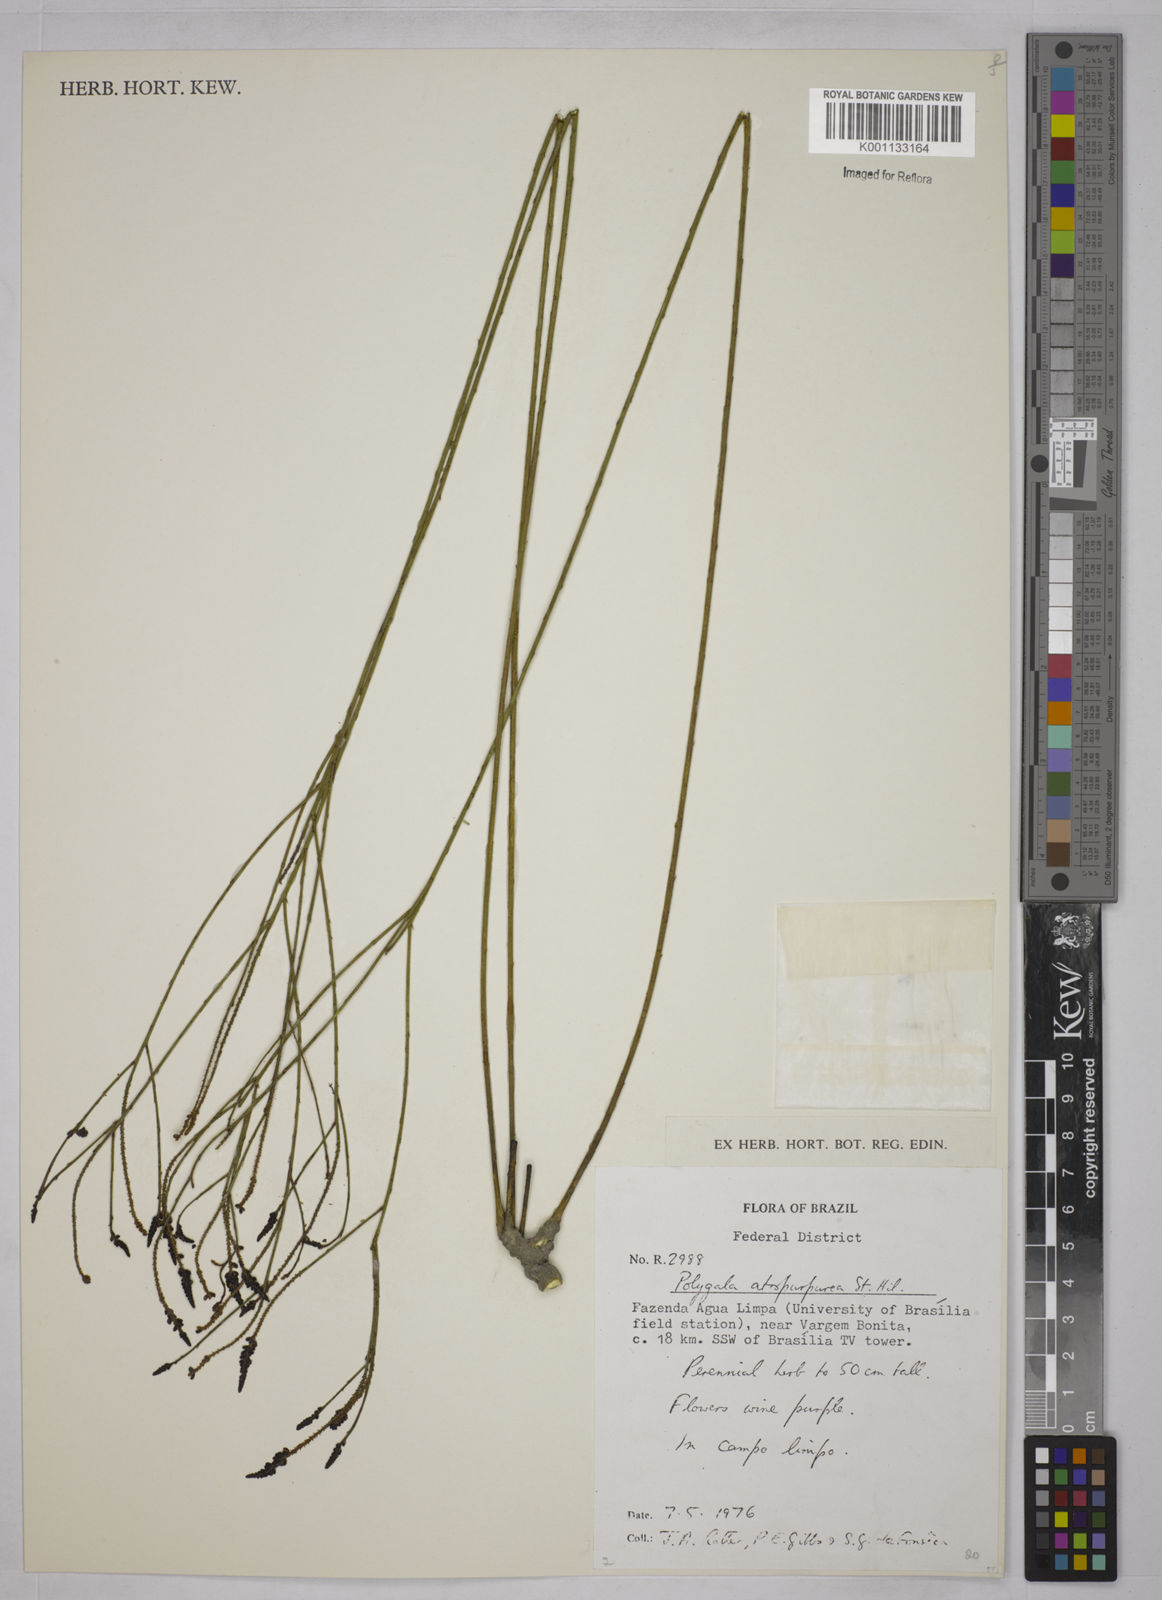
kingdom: Plantae
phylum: Tracheophyta
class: Magnoliopsida
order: Fabales
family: Polygalaceae
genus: Polygala
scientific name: Polygala atropurpurea
